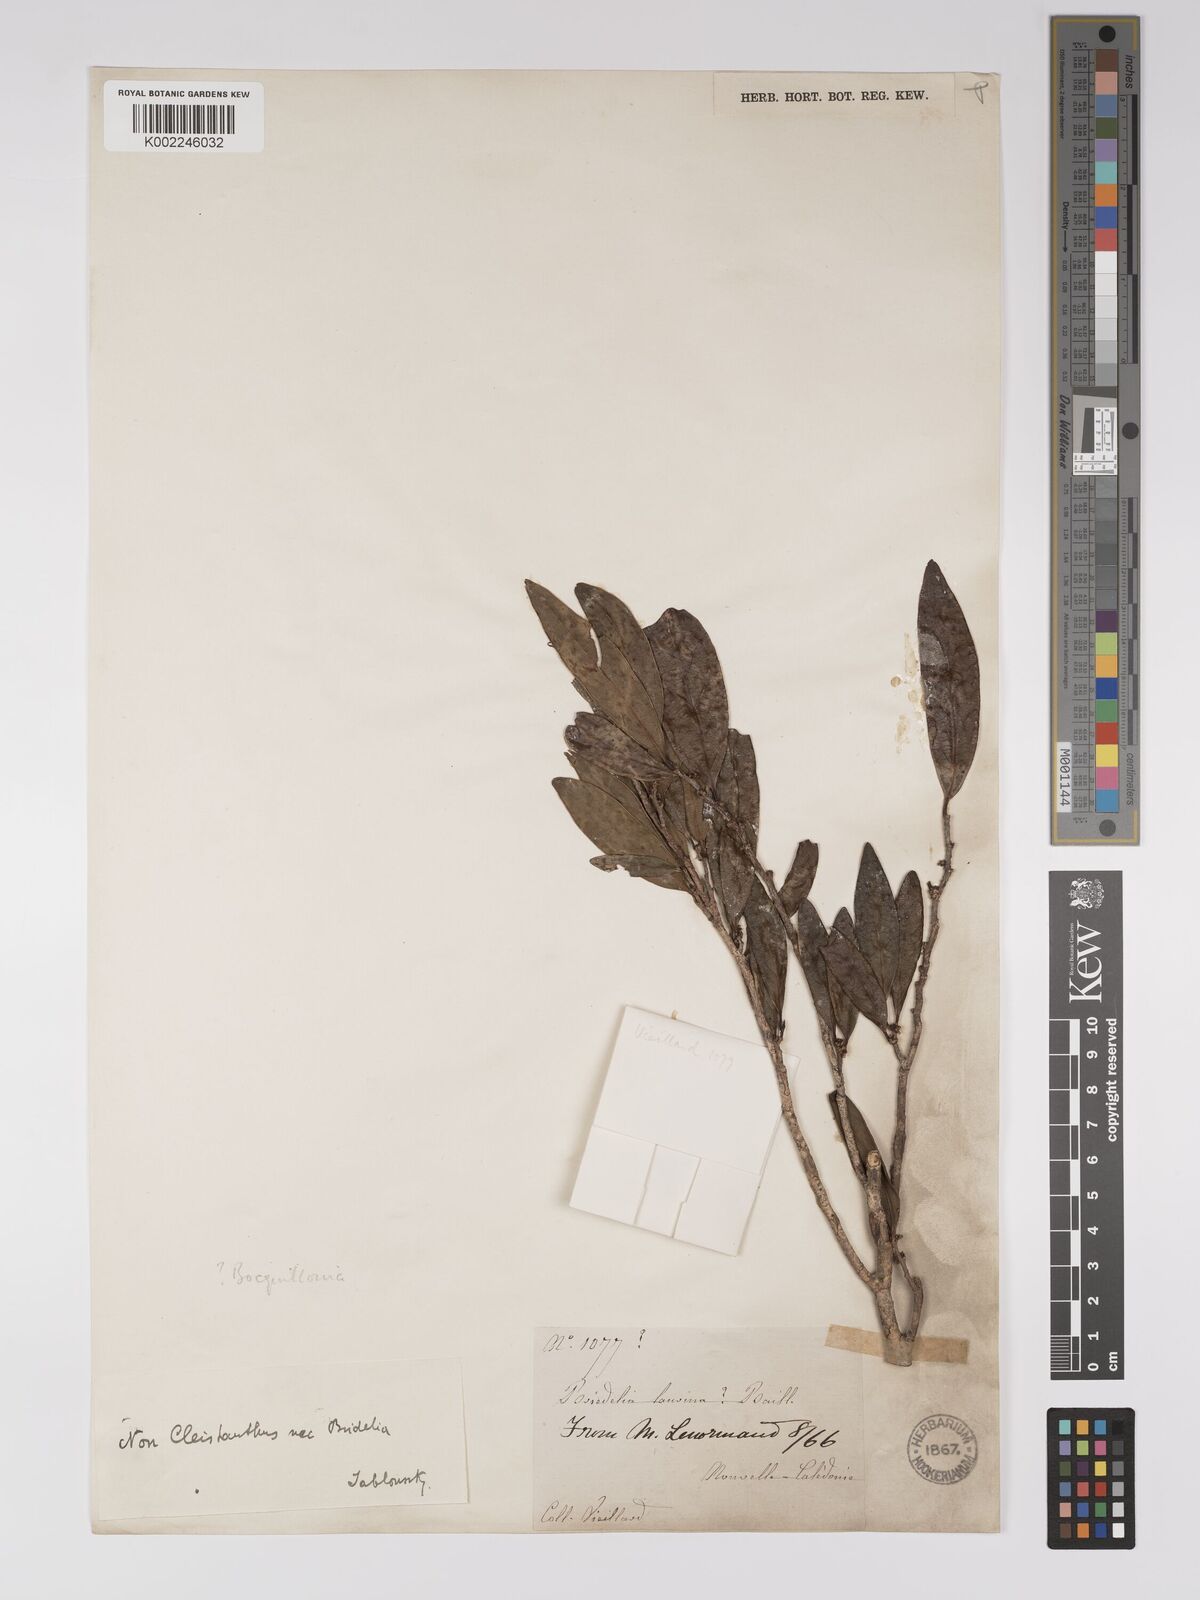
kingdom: Plantae
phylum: Tracheophyta
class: Magnoliopsida
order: Malpighiales
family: Euphorbiaceae
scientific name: Euphorbiaceae
